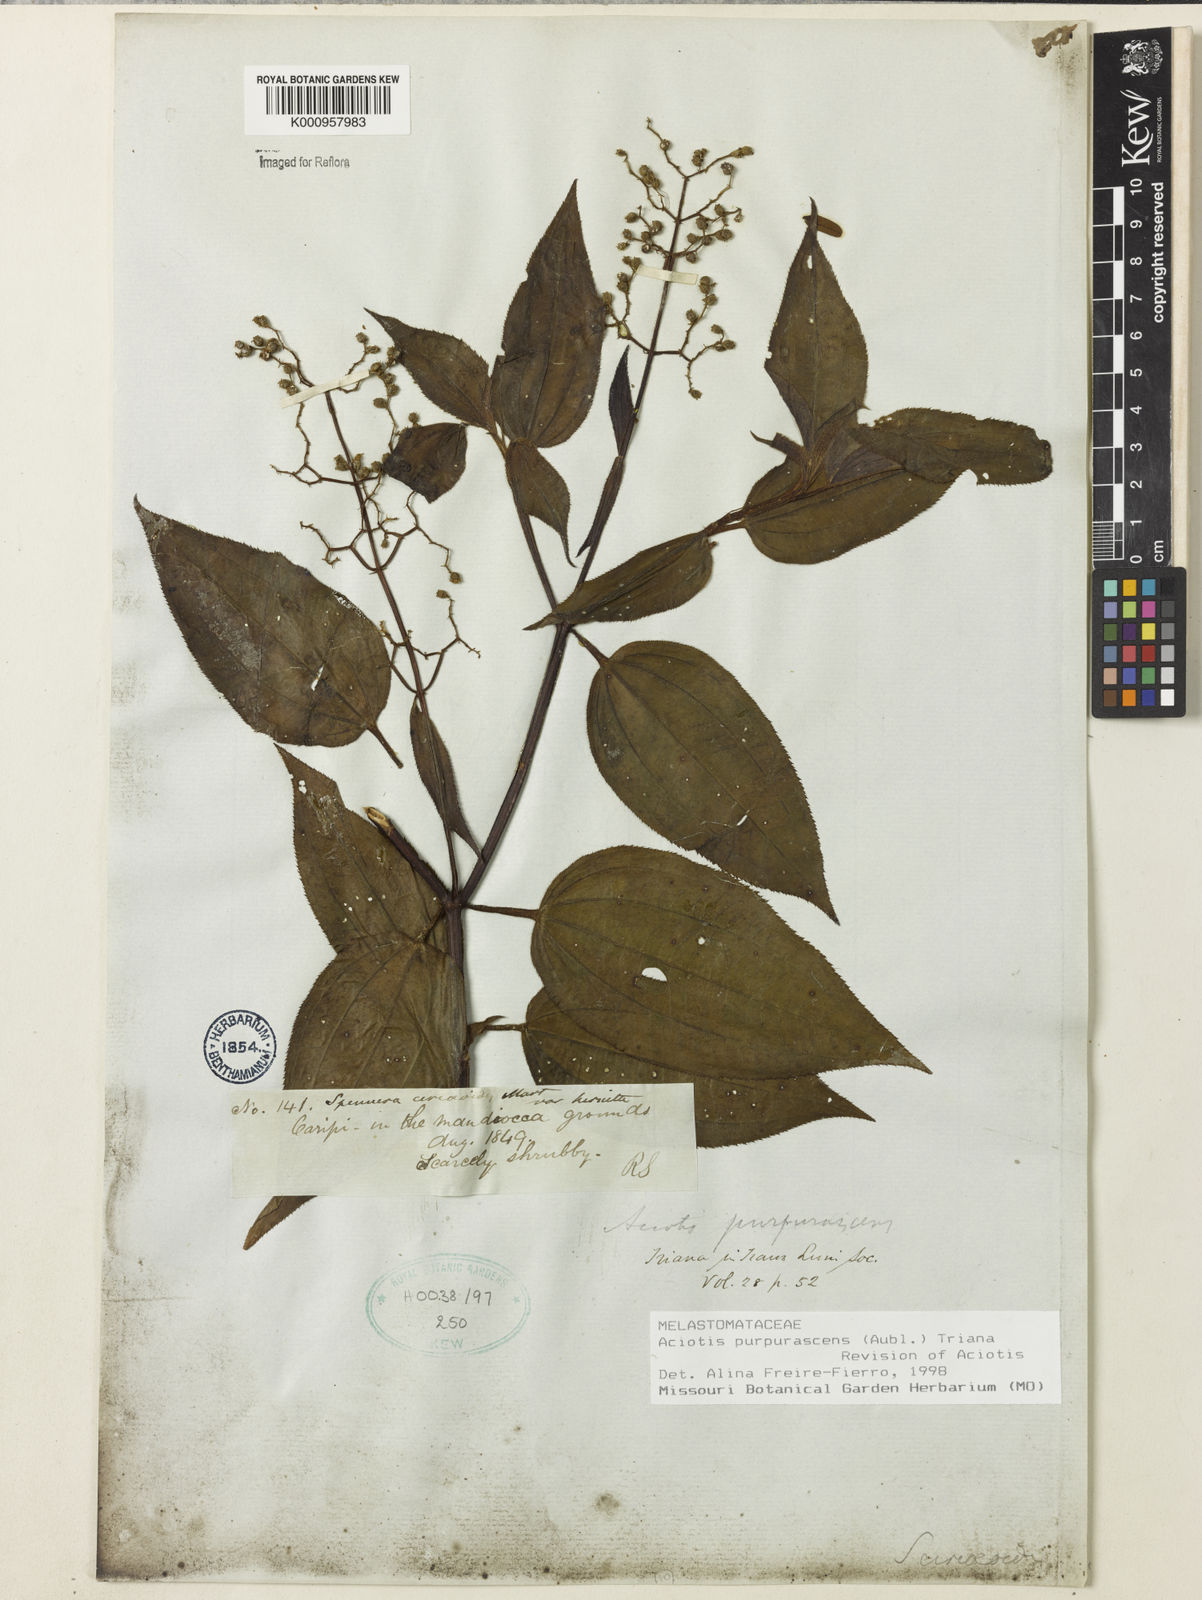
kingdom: Plantae
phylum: Tracheophyta
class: Magnoliopsida
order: Myrtales
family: Melastomataceae
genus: Aciotis
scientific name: Aciotis purpurascens
